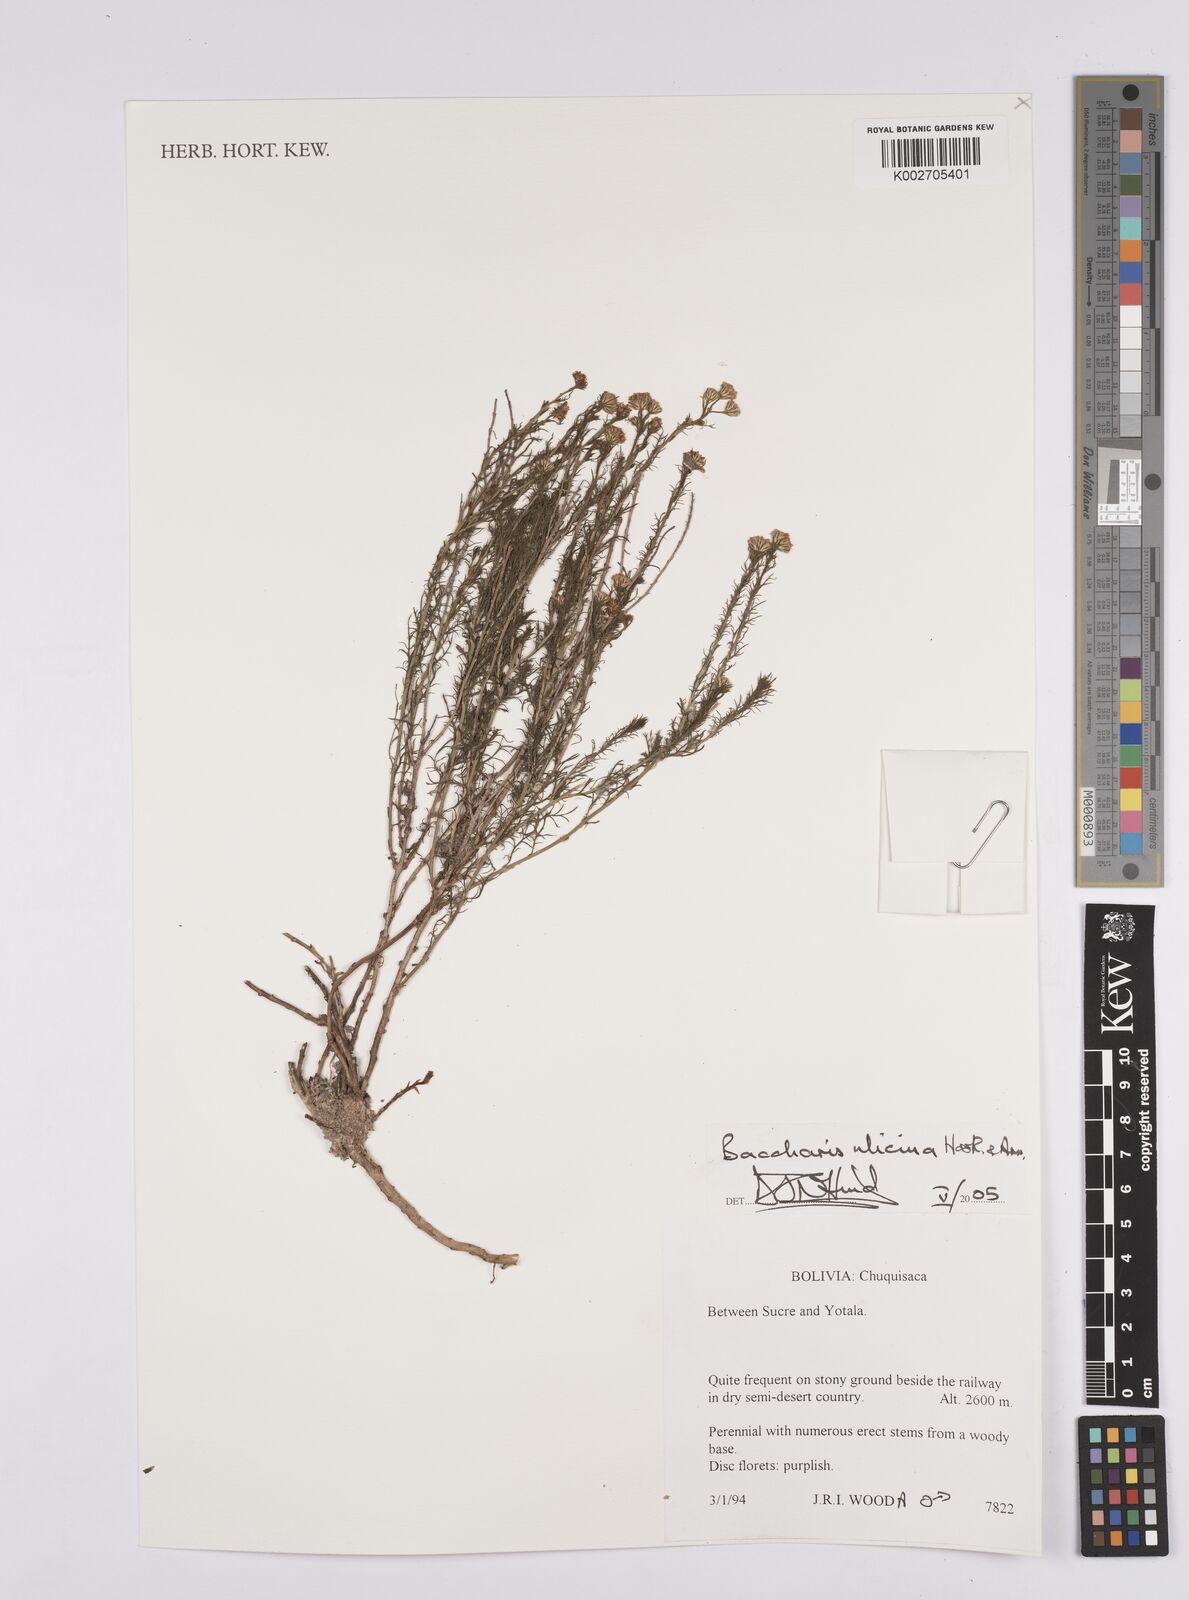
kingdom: Plantae
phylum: Tracheophyta
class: Magnoliopsida
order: Asterales
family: Asteraceae
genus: Baccharis
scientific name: Baccharis ulicina
